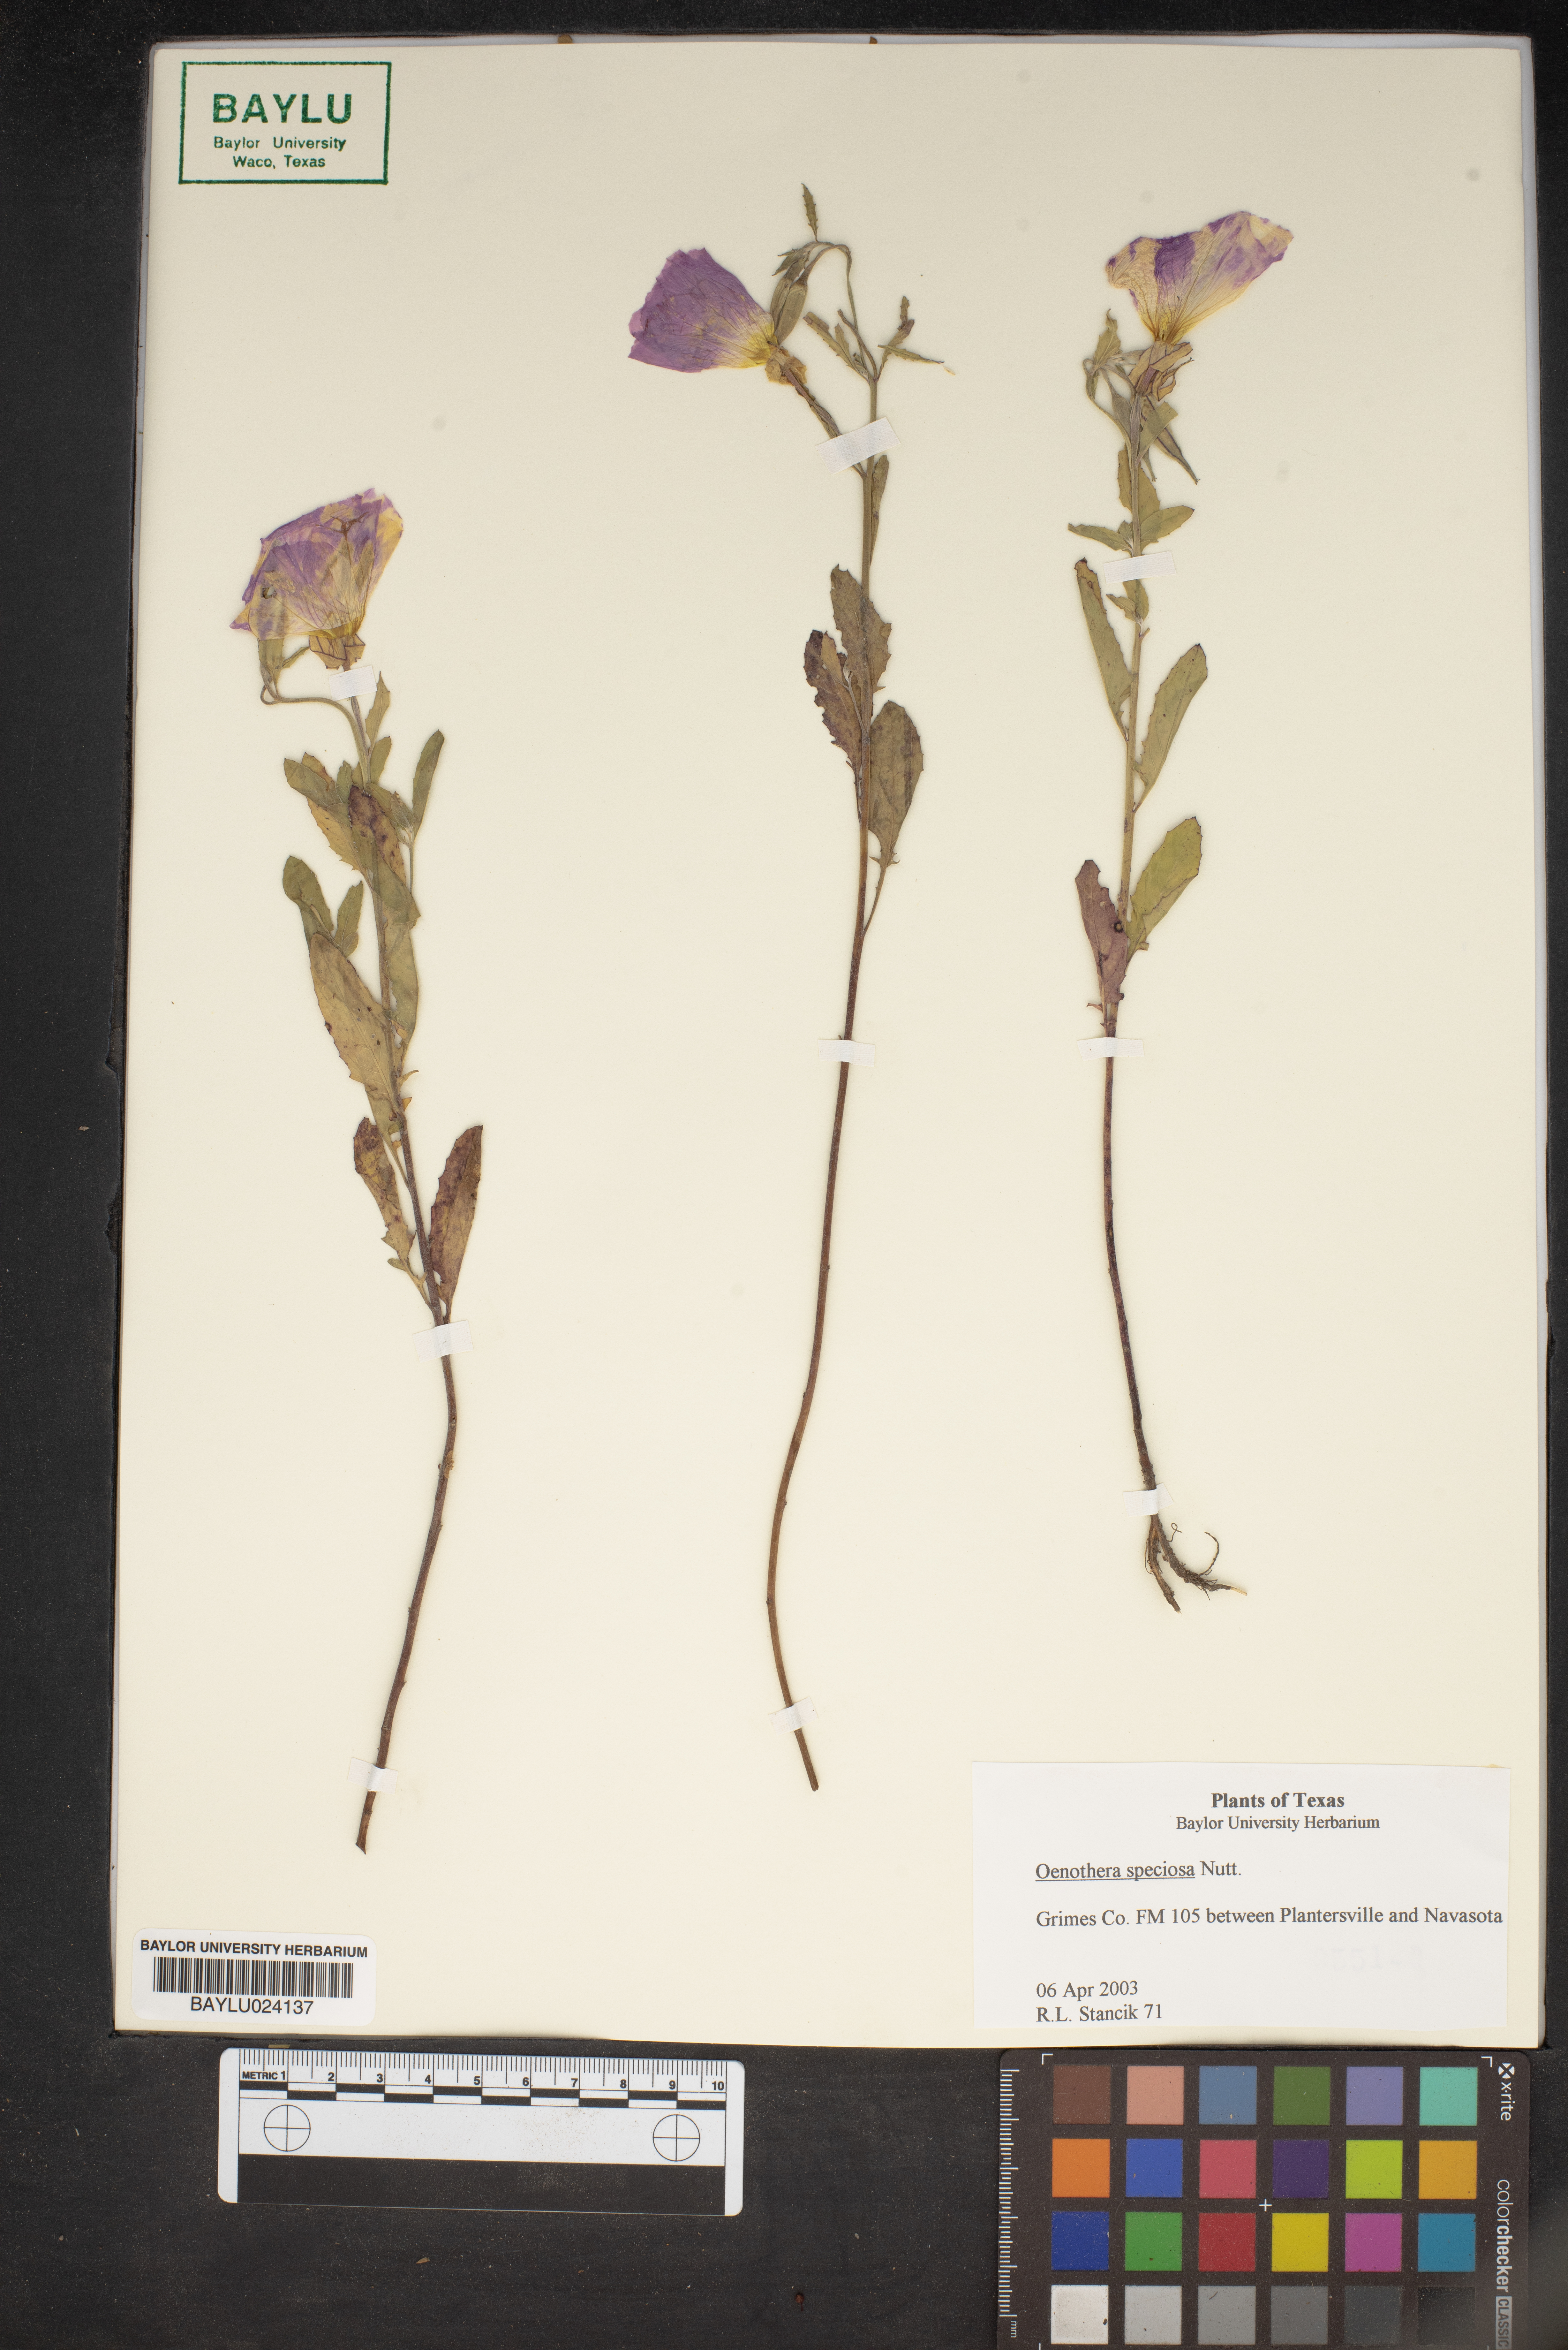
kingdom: Plantae
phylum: Tracheophyta
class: Magnoliopsida
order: Myrtales
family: Onagraceae
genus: Oenothera
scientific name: Oenothera speciosa
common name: White evening-primrose
